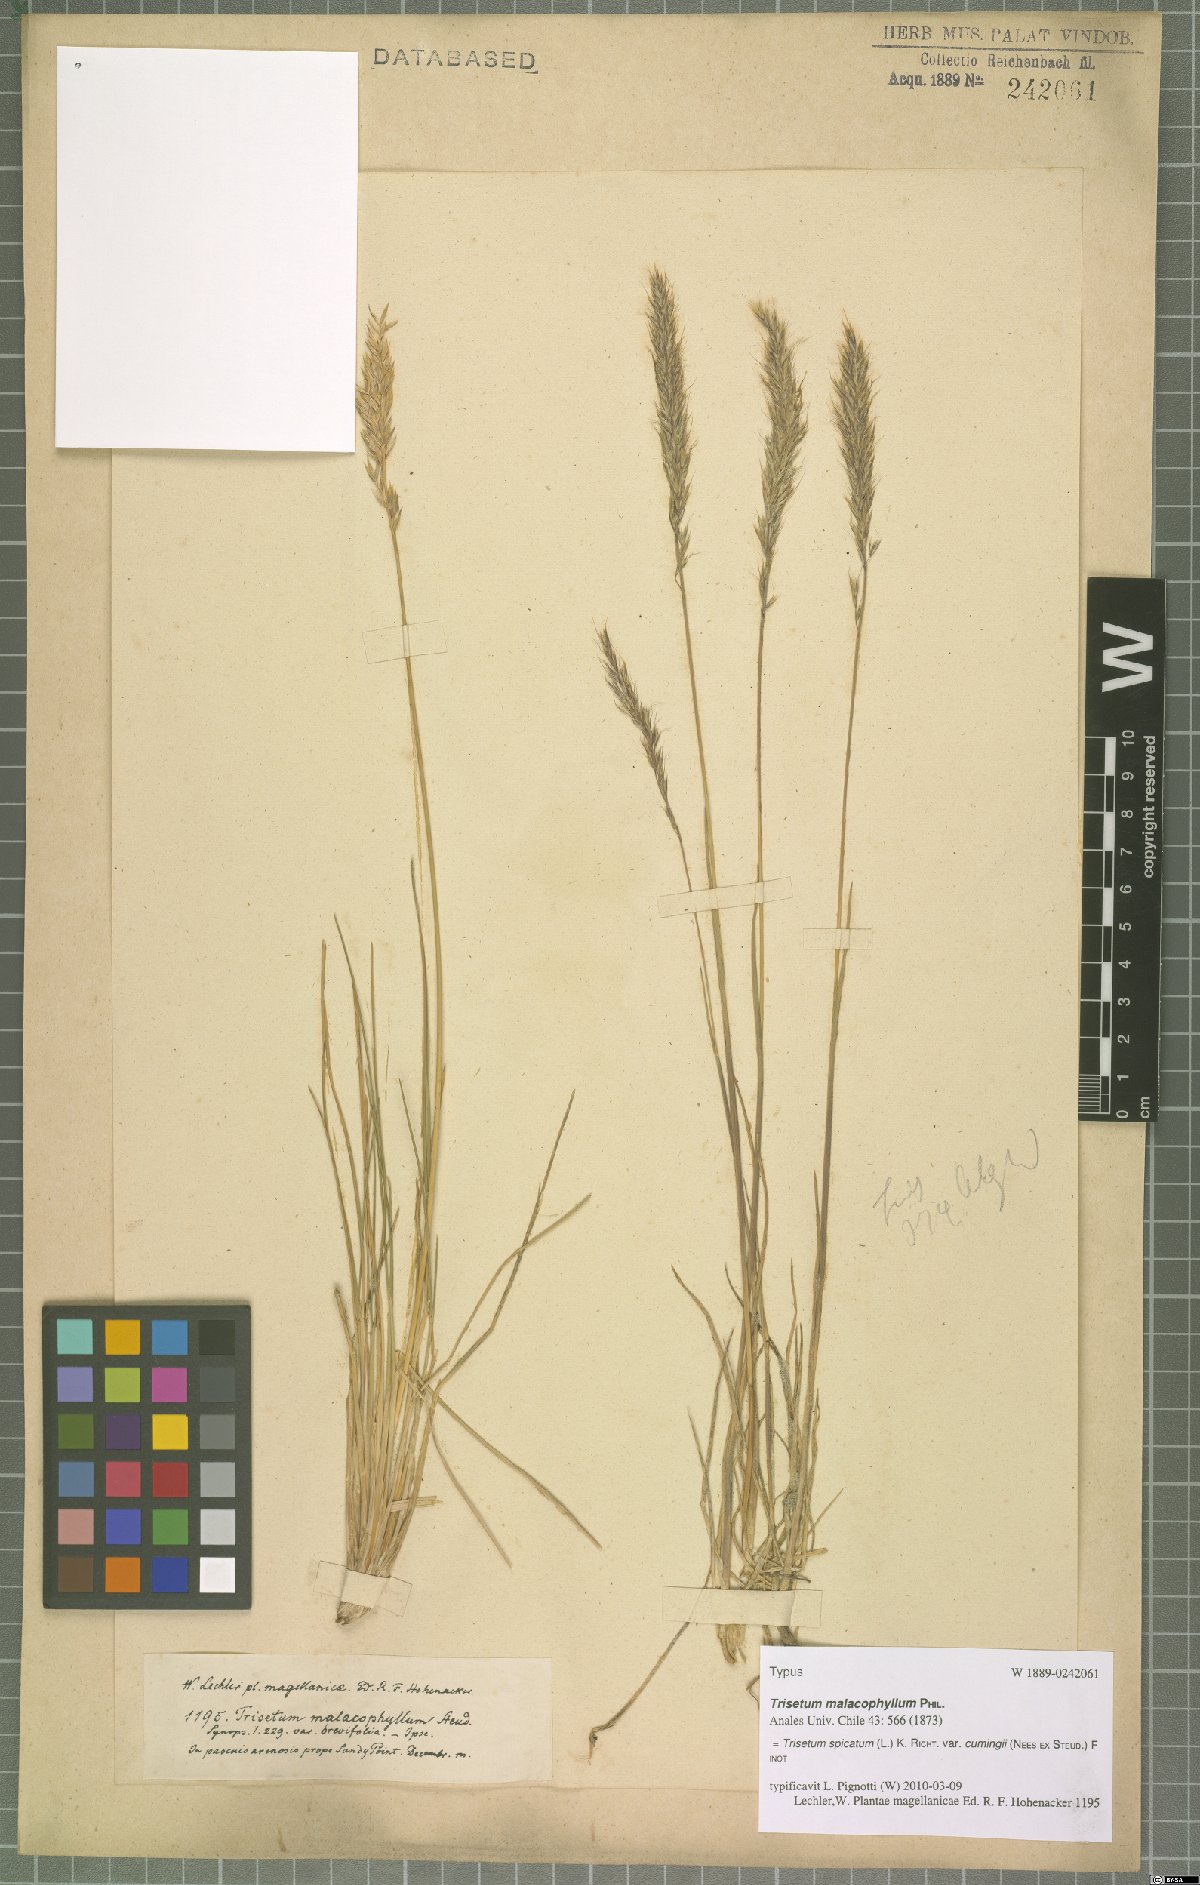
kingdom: Plantae
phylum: Tracheophyta
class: Liliopsida
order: Poales
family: Poaceae
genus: Koeleria
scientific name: Koeleria cumingii
